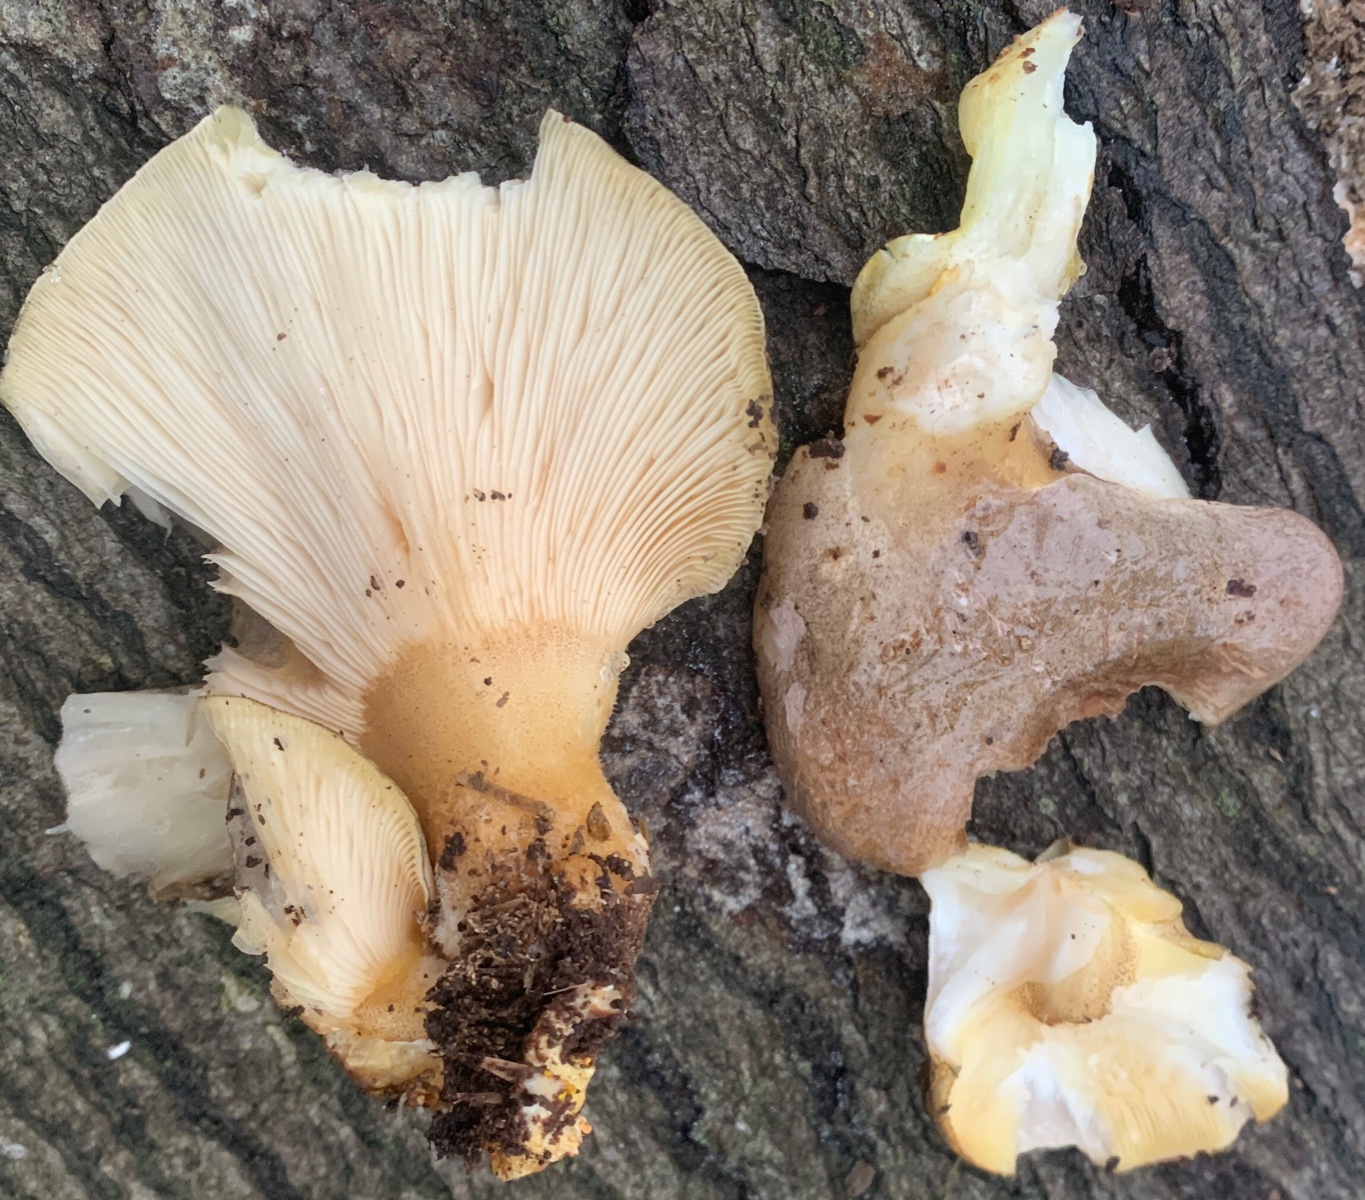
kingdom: Fungi
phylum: Basidiomycota
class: Agaricomycetes
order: Agaricales
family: Sarcomyxaceae
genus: Sarcomyxa
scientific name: Sarcomyxa serotina
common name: gummihat
